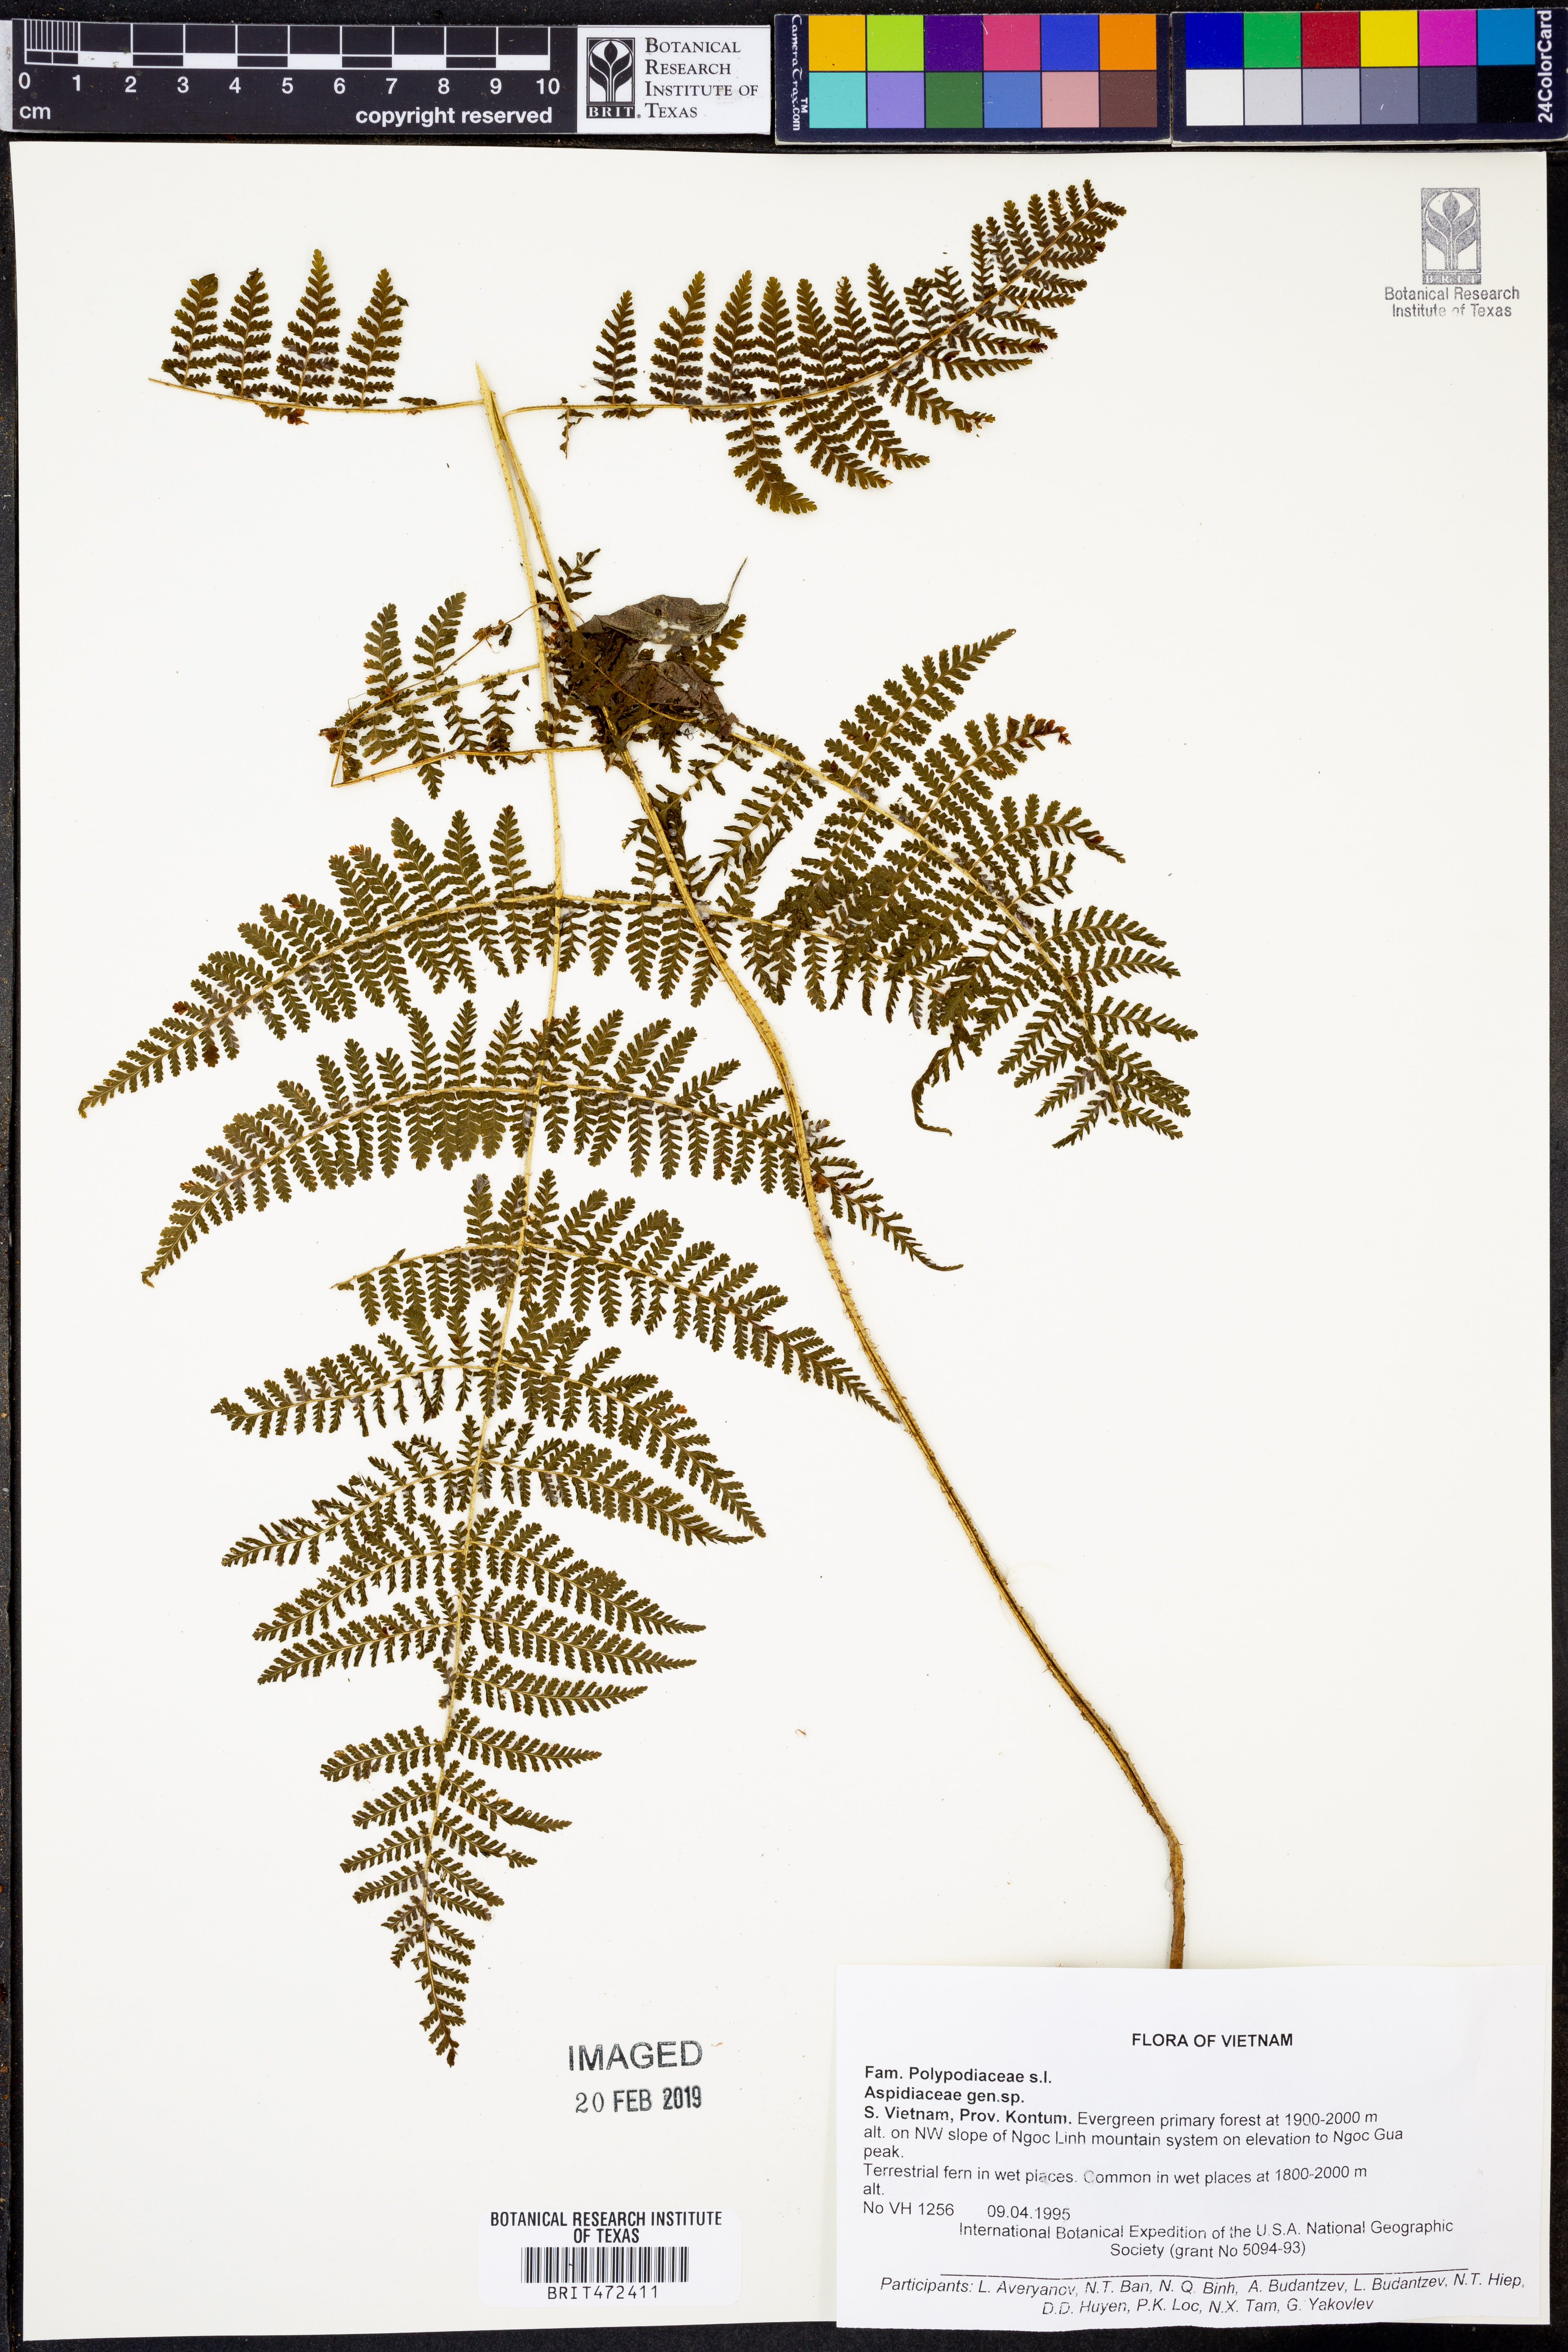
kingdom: Plantae
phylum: Tracheophyta
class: Polypodiopsida
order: Polypodiales
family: Dryopteridaceae
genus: Dryopteris
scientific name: Dryopteris pseudocaenopteris
